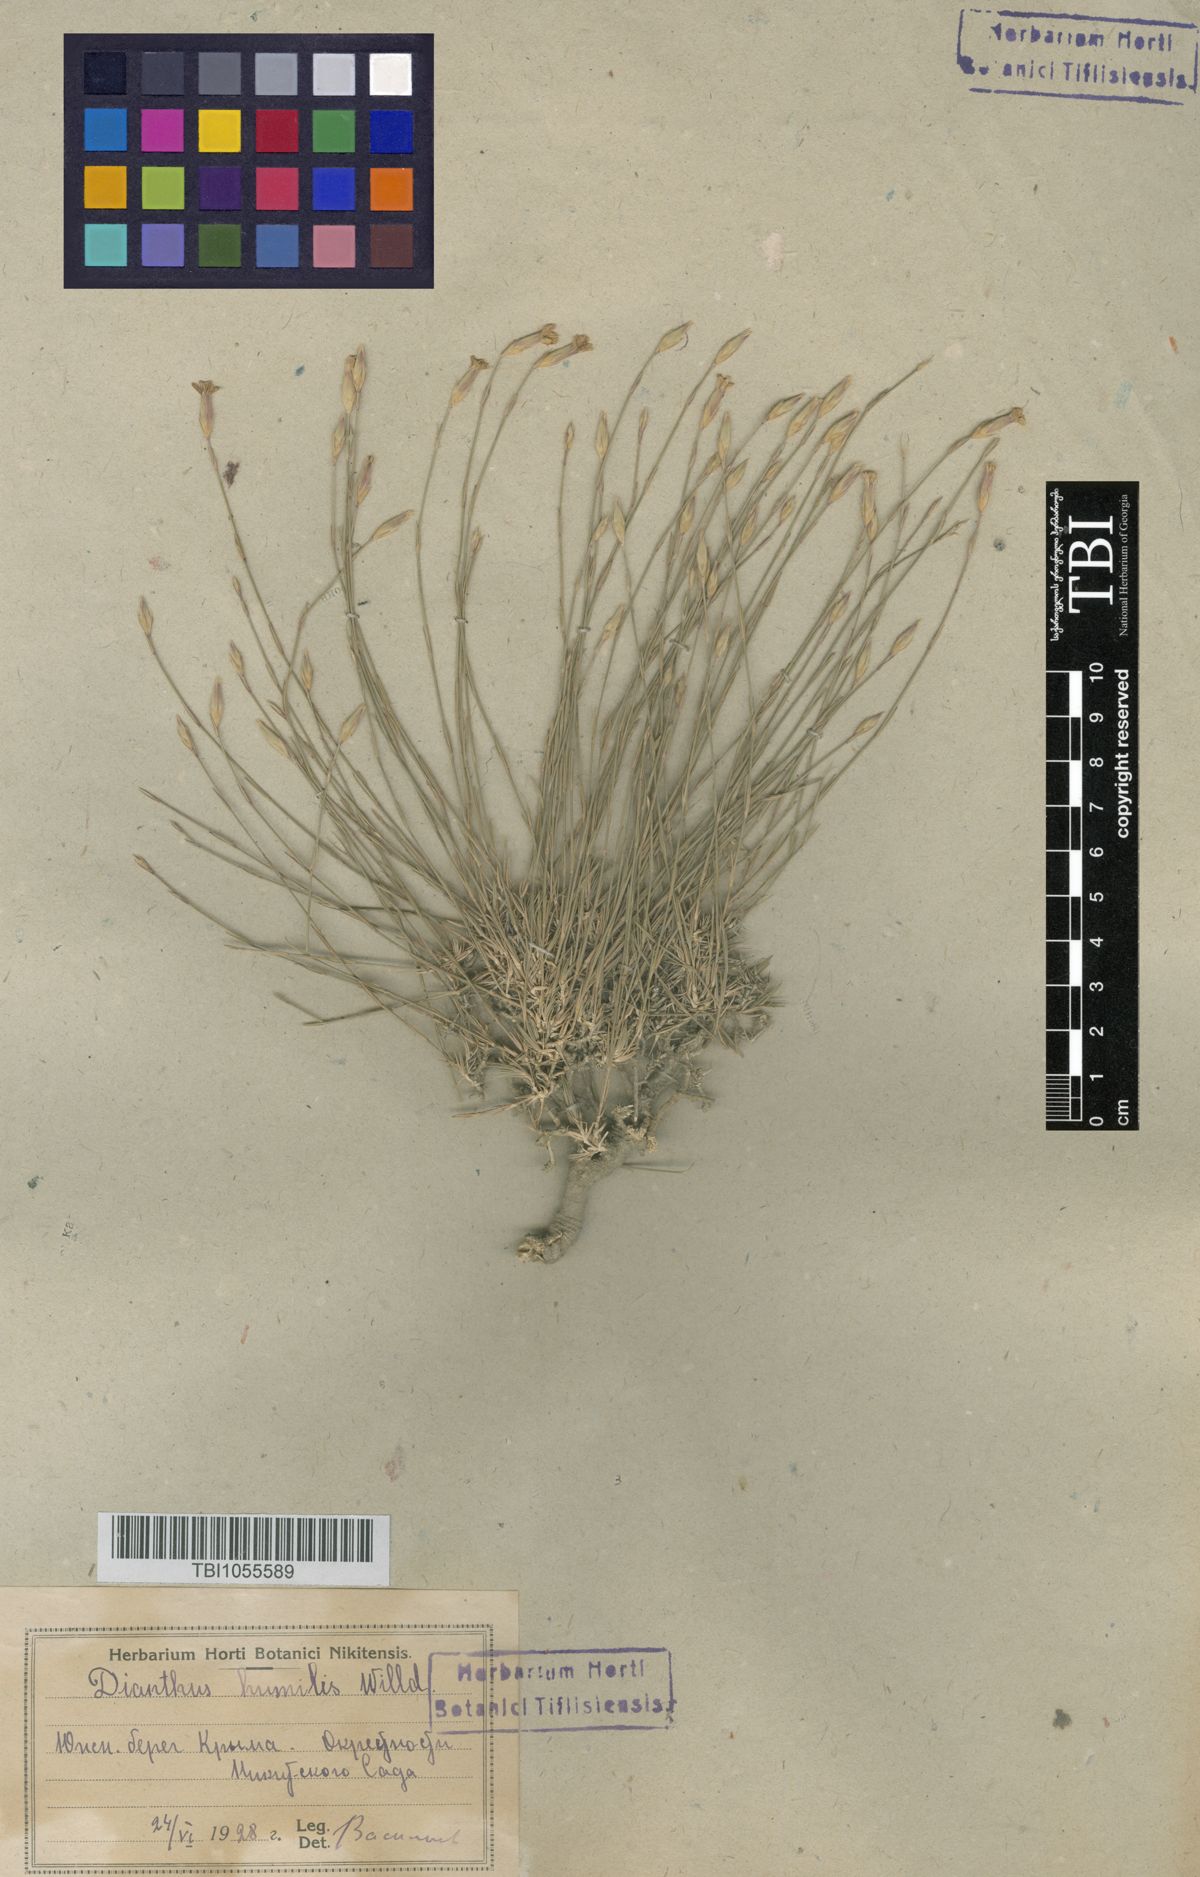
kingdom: Plantae
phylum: Tracheophyta
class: Magnoliopsida
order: Caryophyllales
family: Caryophyllaceae
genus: Dianthus
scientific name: Dianthus humilis
